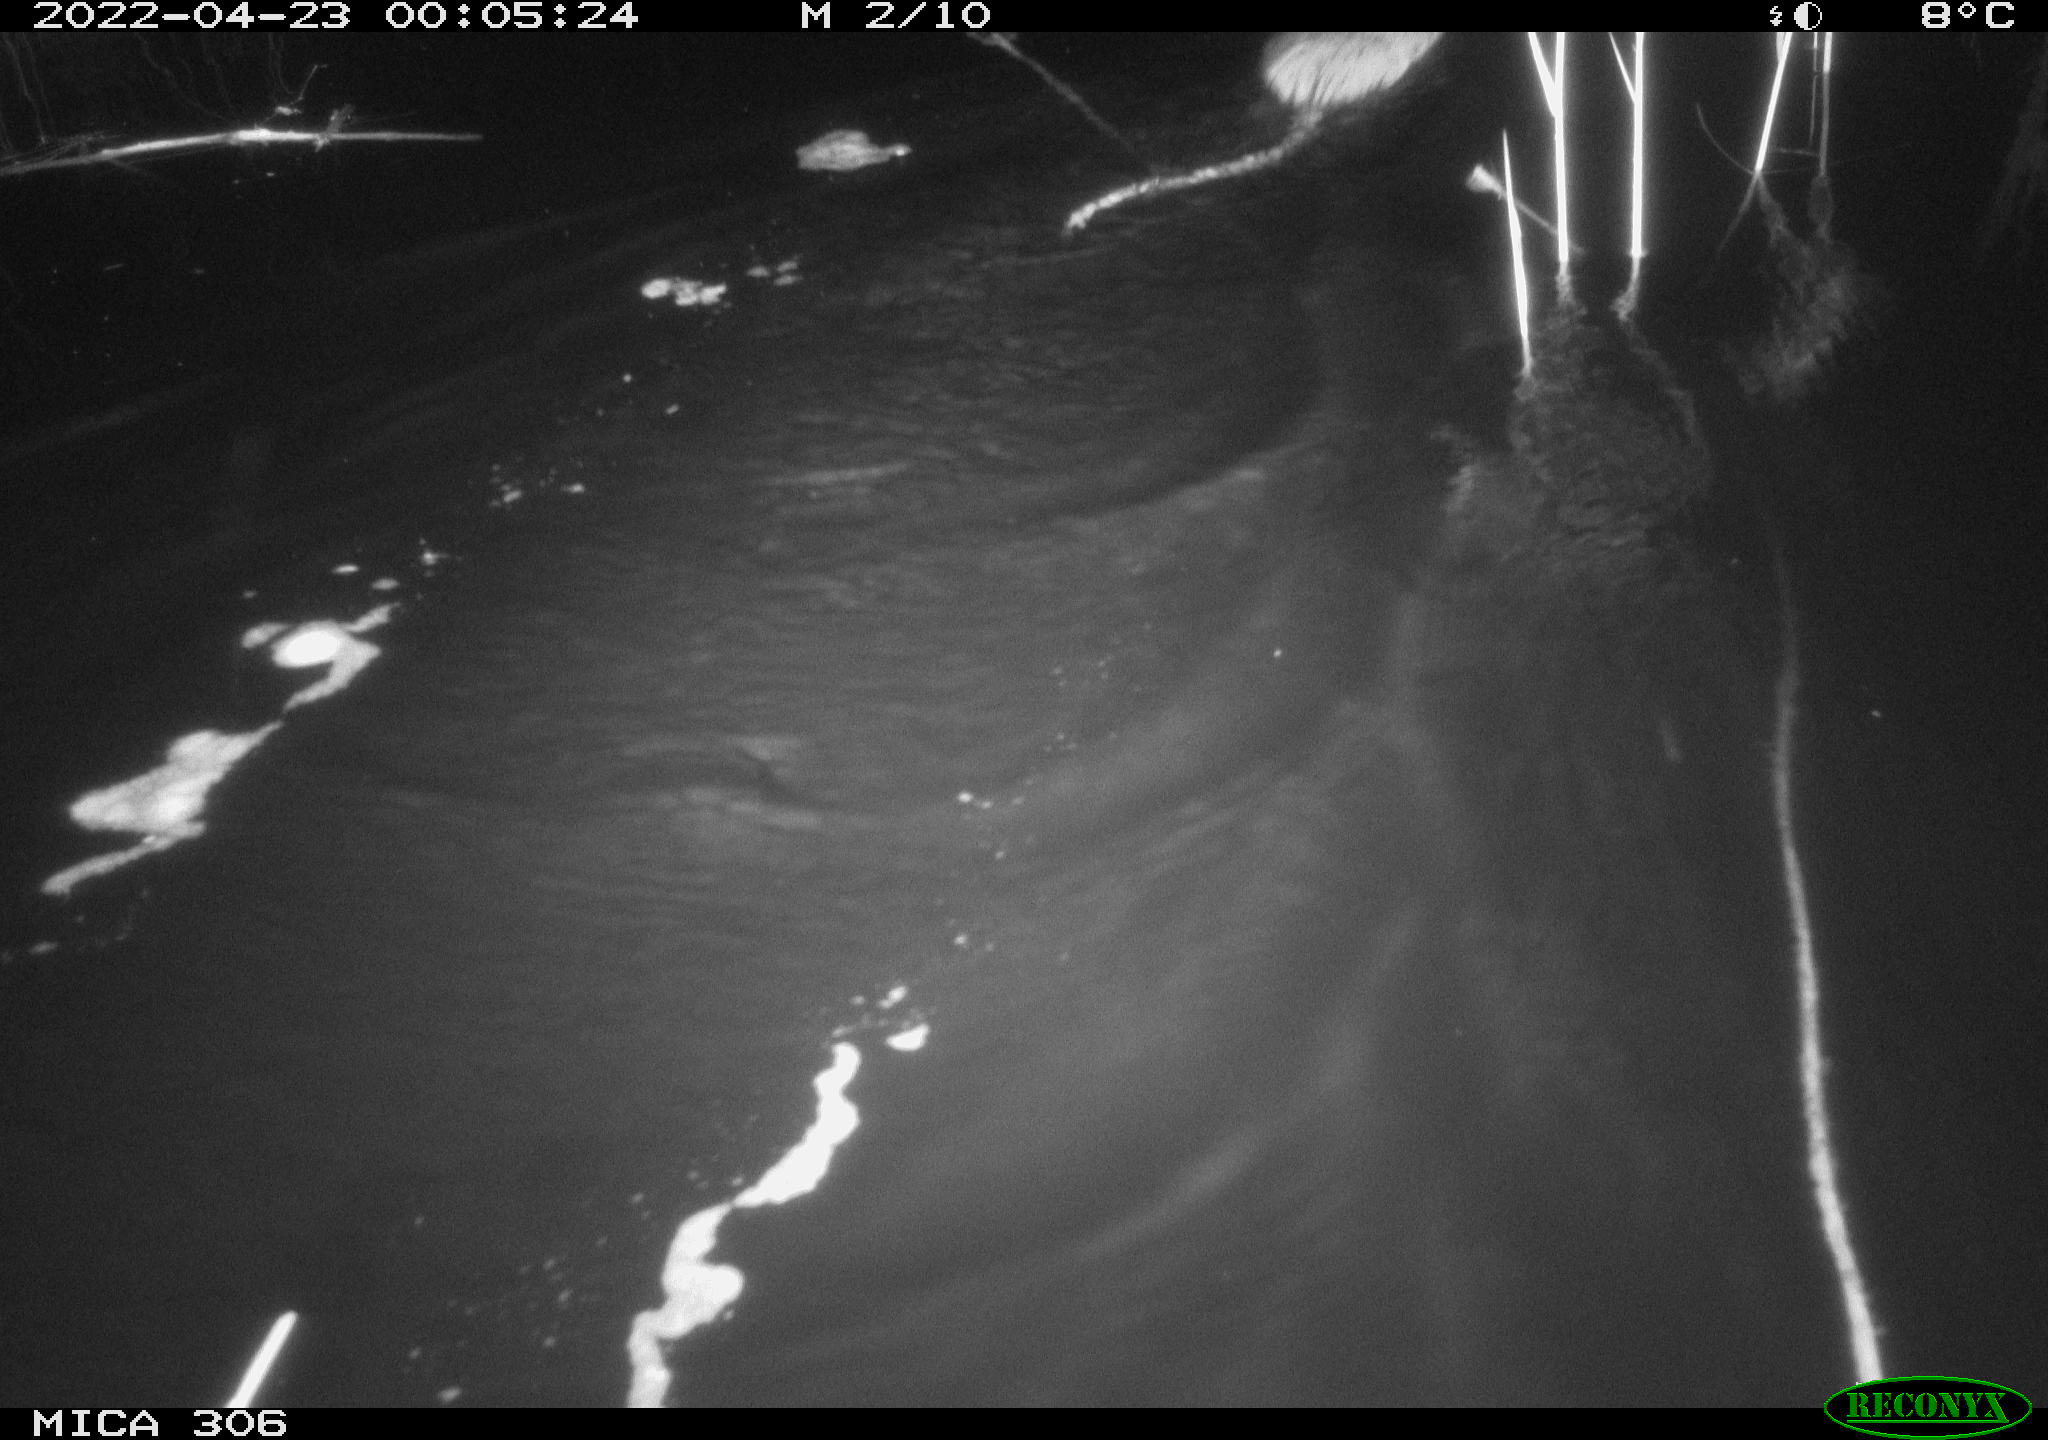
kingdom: Animalia
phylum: Chordata
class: Mammalia
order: Rodentia
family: Cricetidae
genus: Ondatra
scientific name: Ondatra zibethicus
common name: Muskrat
